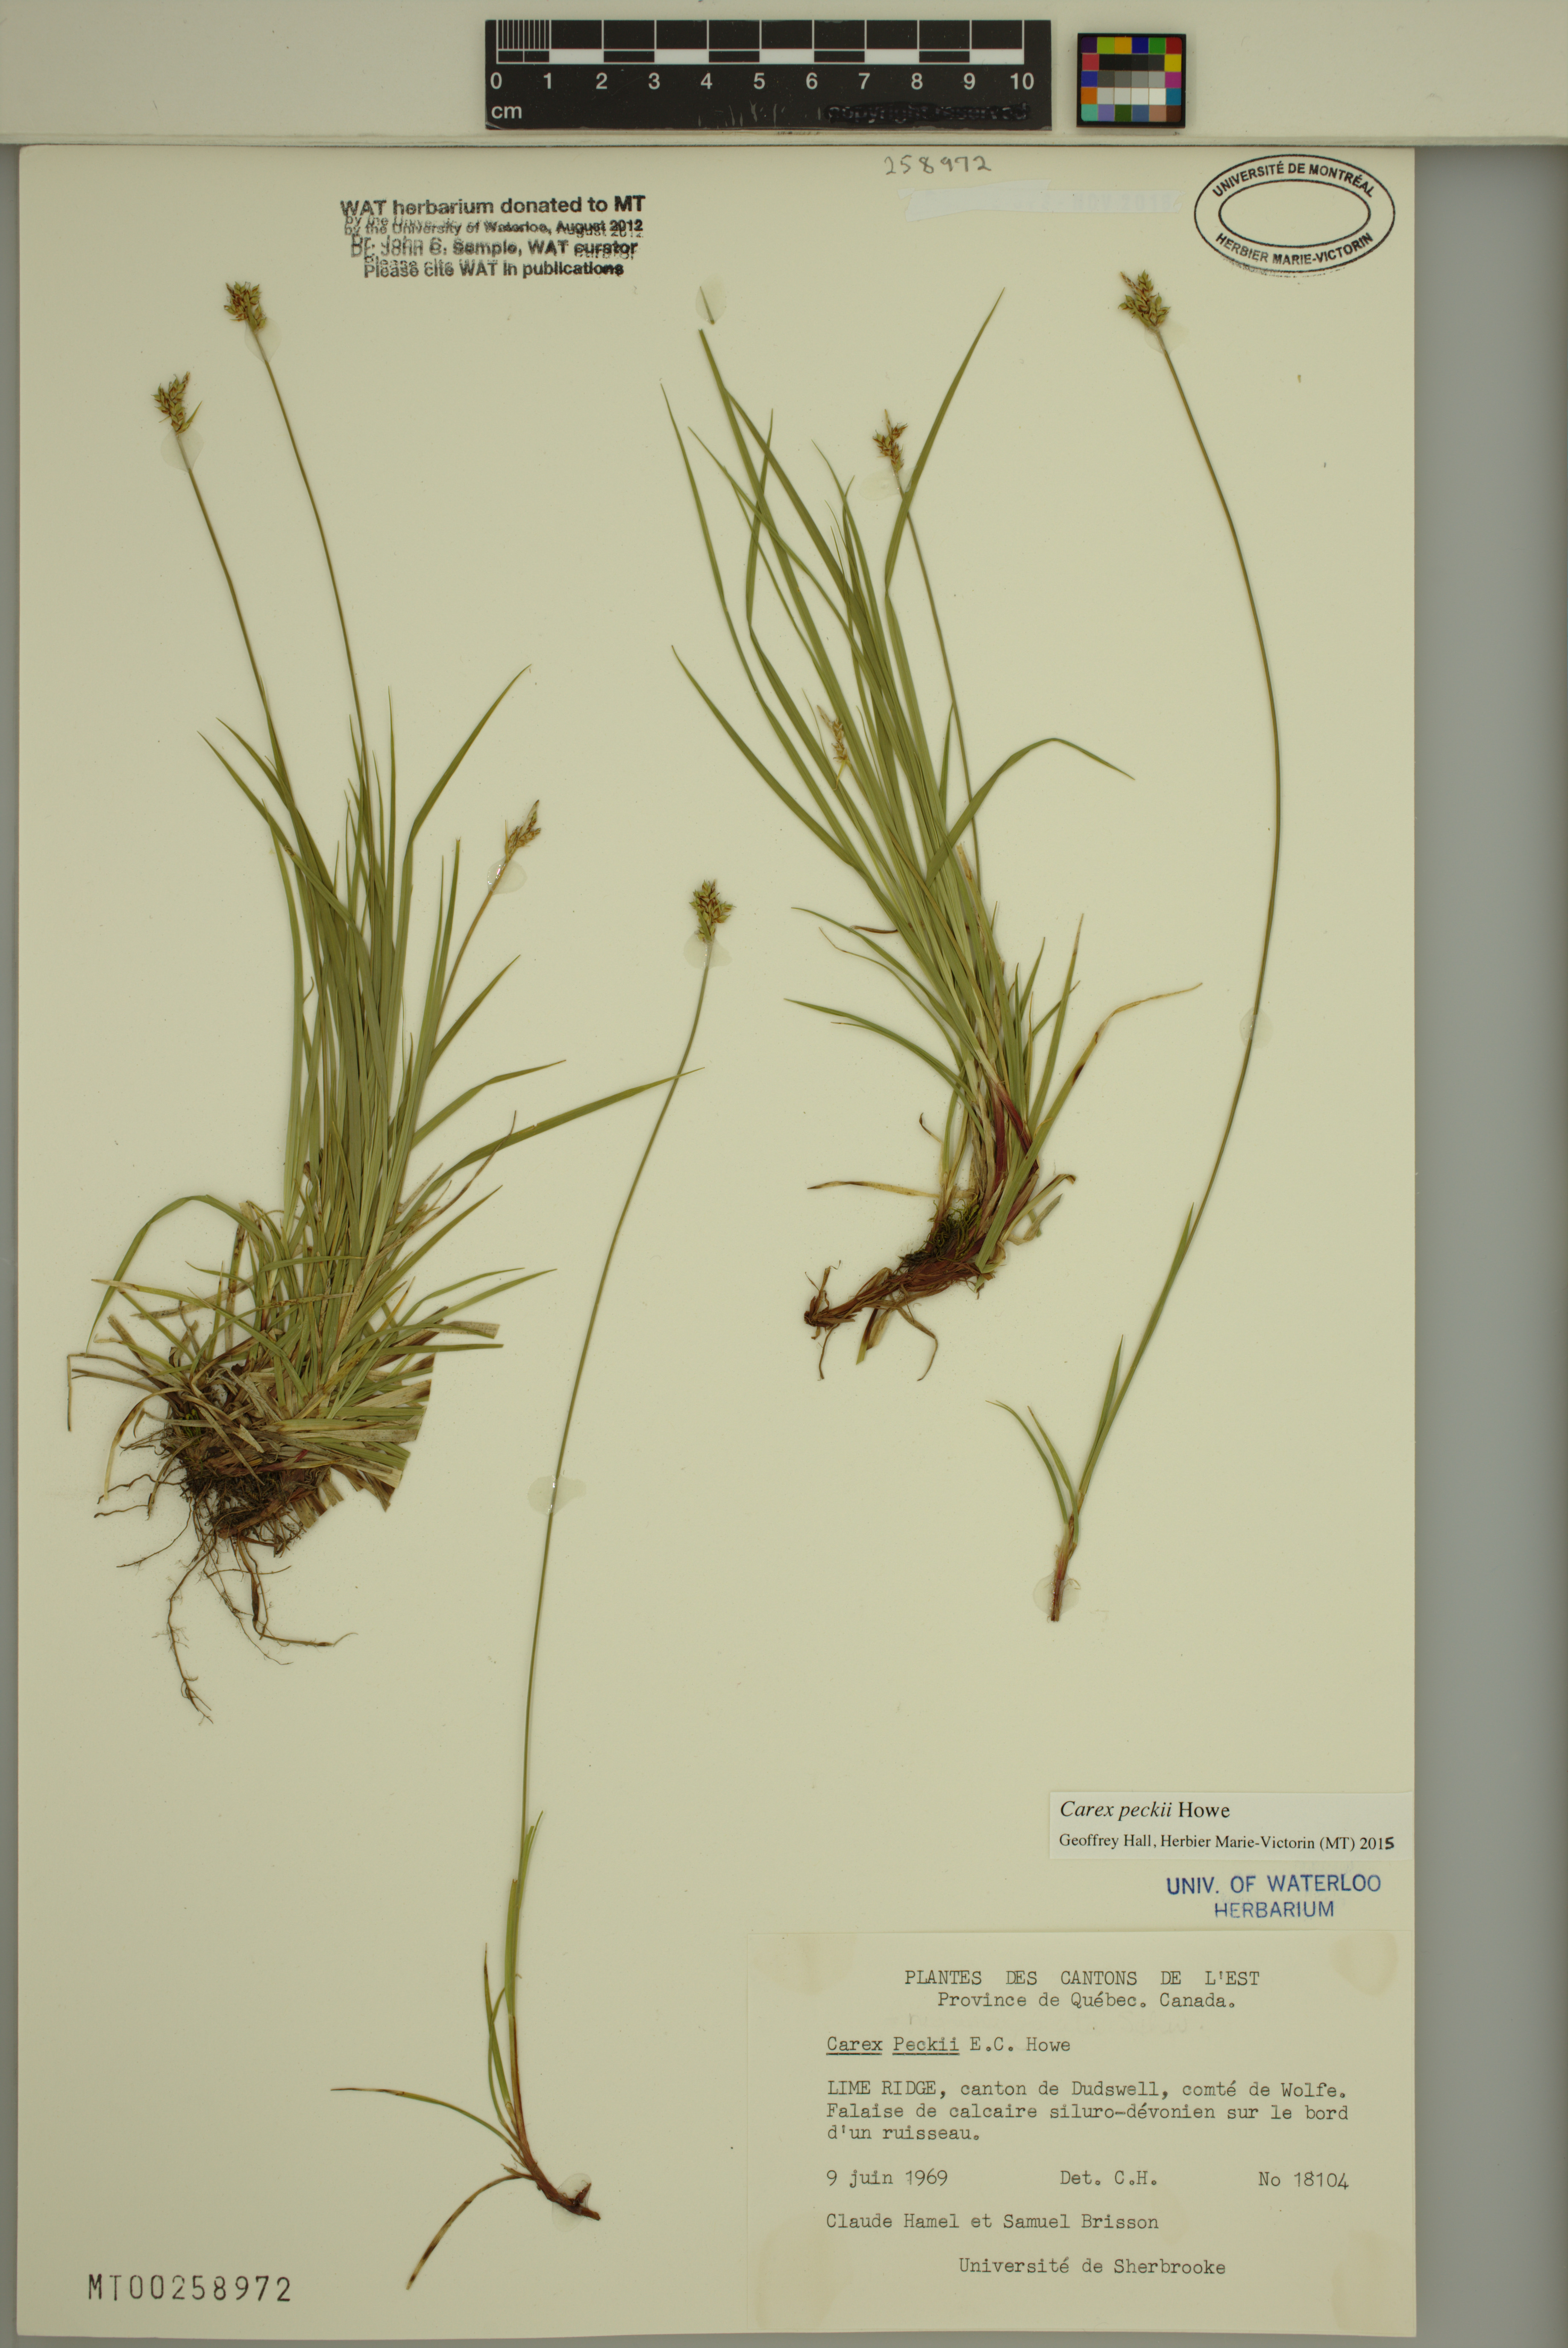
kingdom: Plantae
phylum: Tracheophyta
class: Liliopsida
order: Poales
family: Cyperaceae
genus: Carex
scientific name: Carex peckii
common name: Peck's oak sedge
